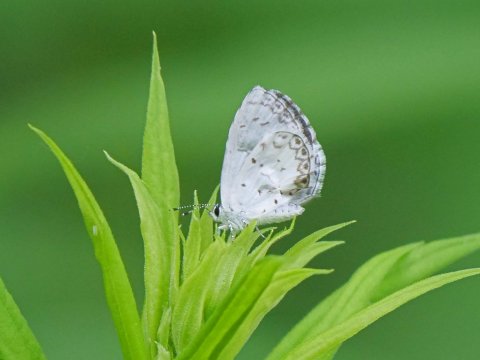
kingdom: Animalia
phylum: Arthropoda
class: Insecta
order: Lepidoptera
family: Lycaenidae
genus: Celastrina
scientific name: Celastrina
